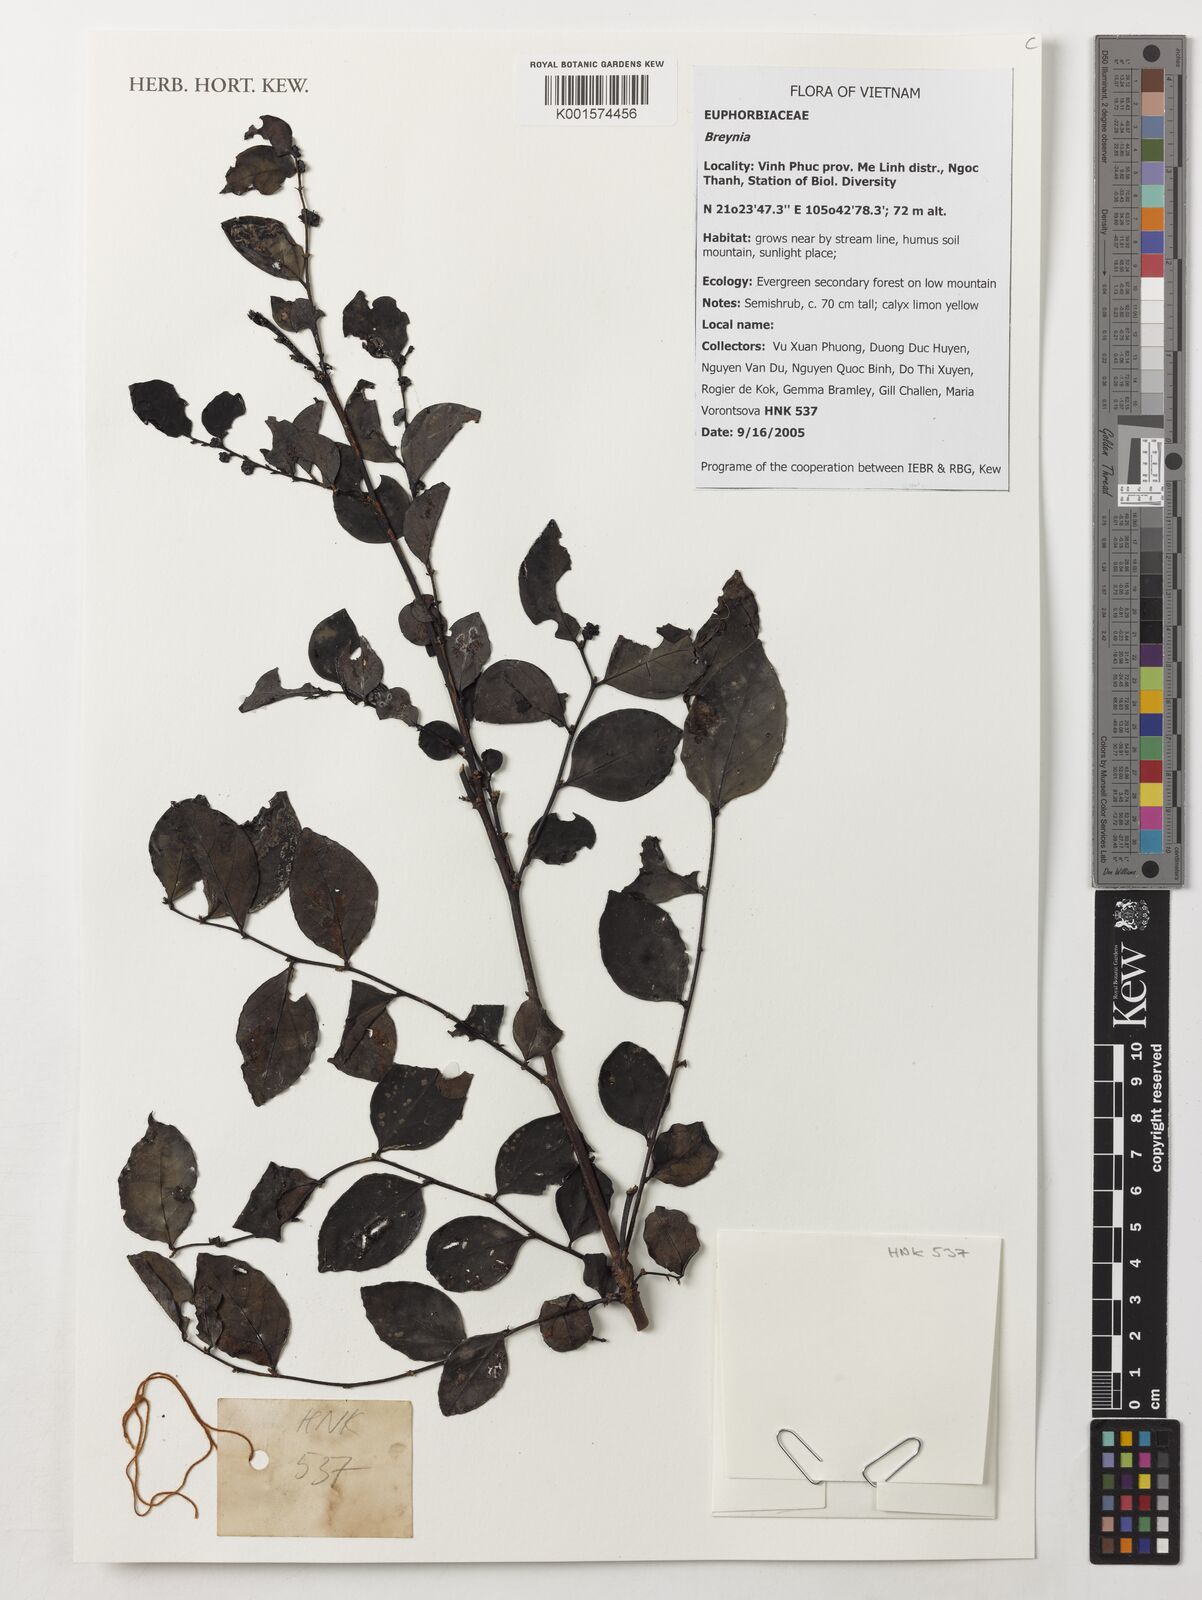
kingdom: Plantae
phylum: Tracheophyta
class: Magnoliopsida
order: Malpighiales
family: Phyllanthaceae
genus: Breynia
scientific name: Breynia spec
